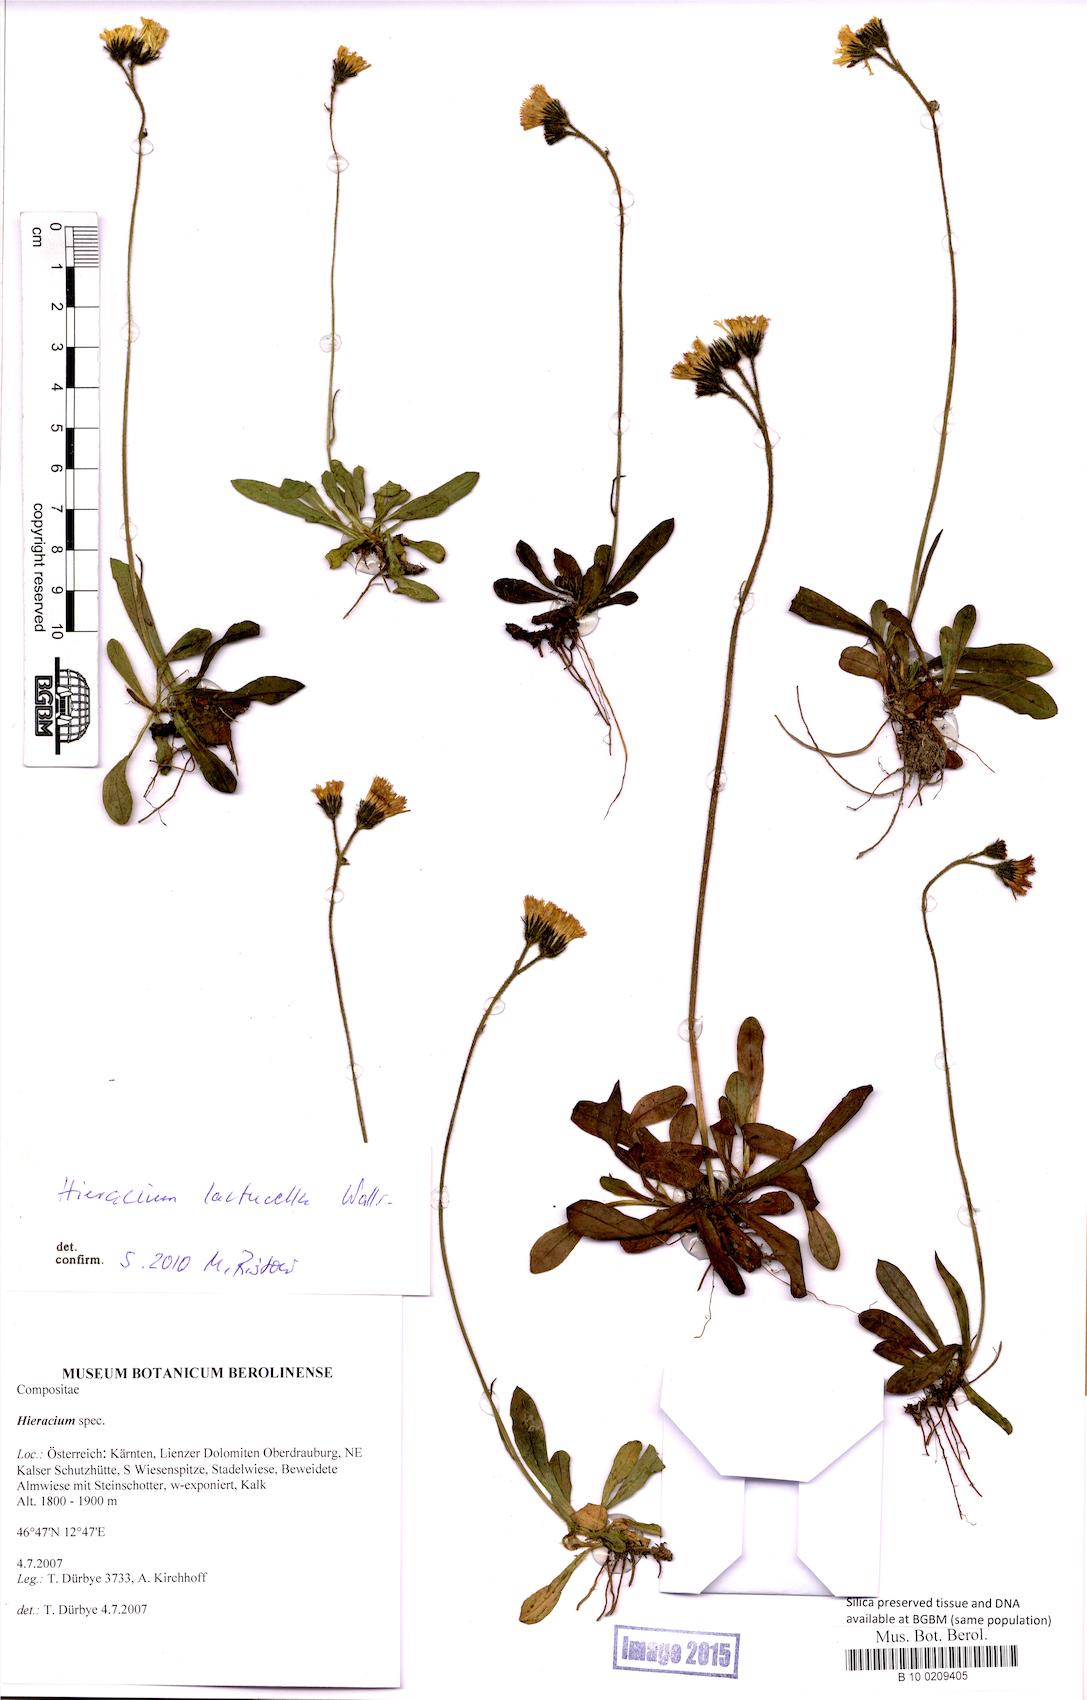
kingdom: Plantae
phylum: Tracheophyta
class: Magnoliopsida
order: Asterales
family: Asteraceae
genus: Hieracium
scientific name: Hieracium
